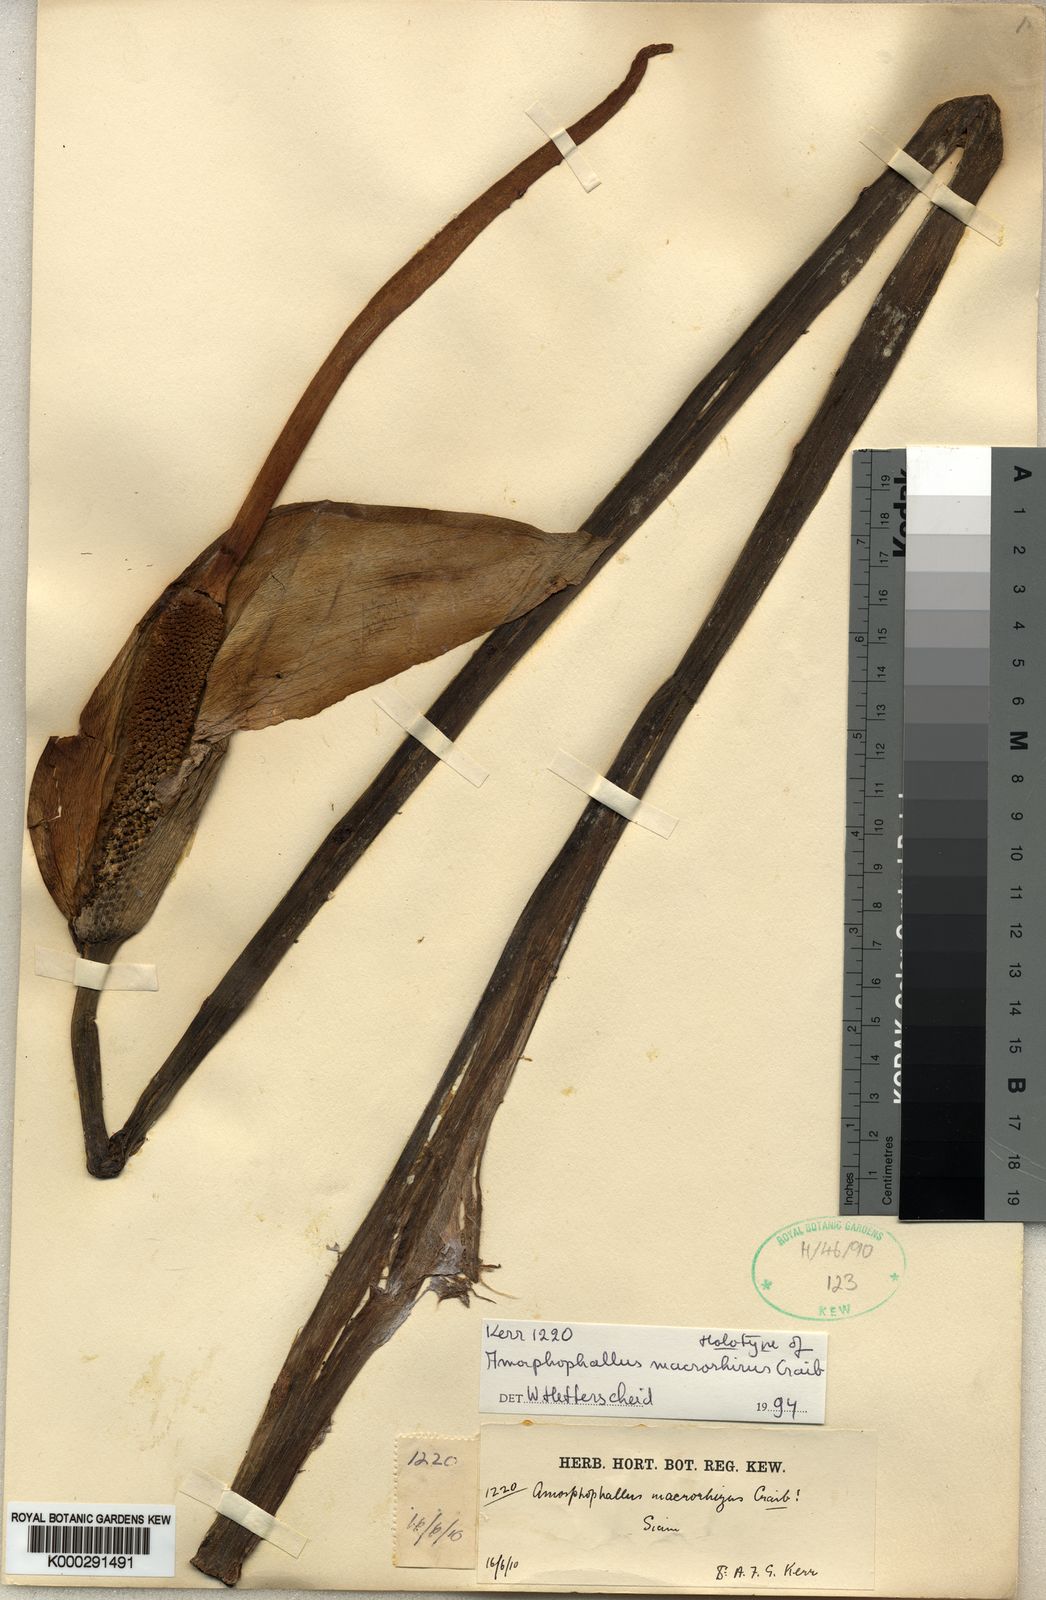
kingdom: Plantae
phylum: Tracheophyta
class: Liliopsida
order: Alismatales
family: Araceae
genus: Amorphophallus
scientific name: Amorphophallus macrorhizus
